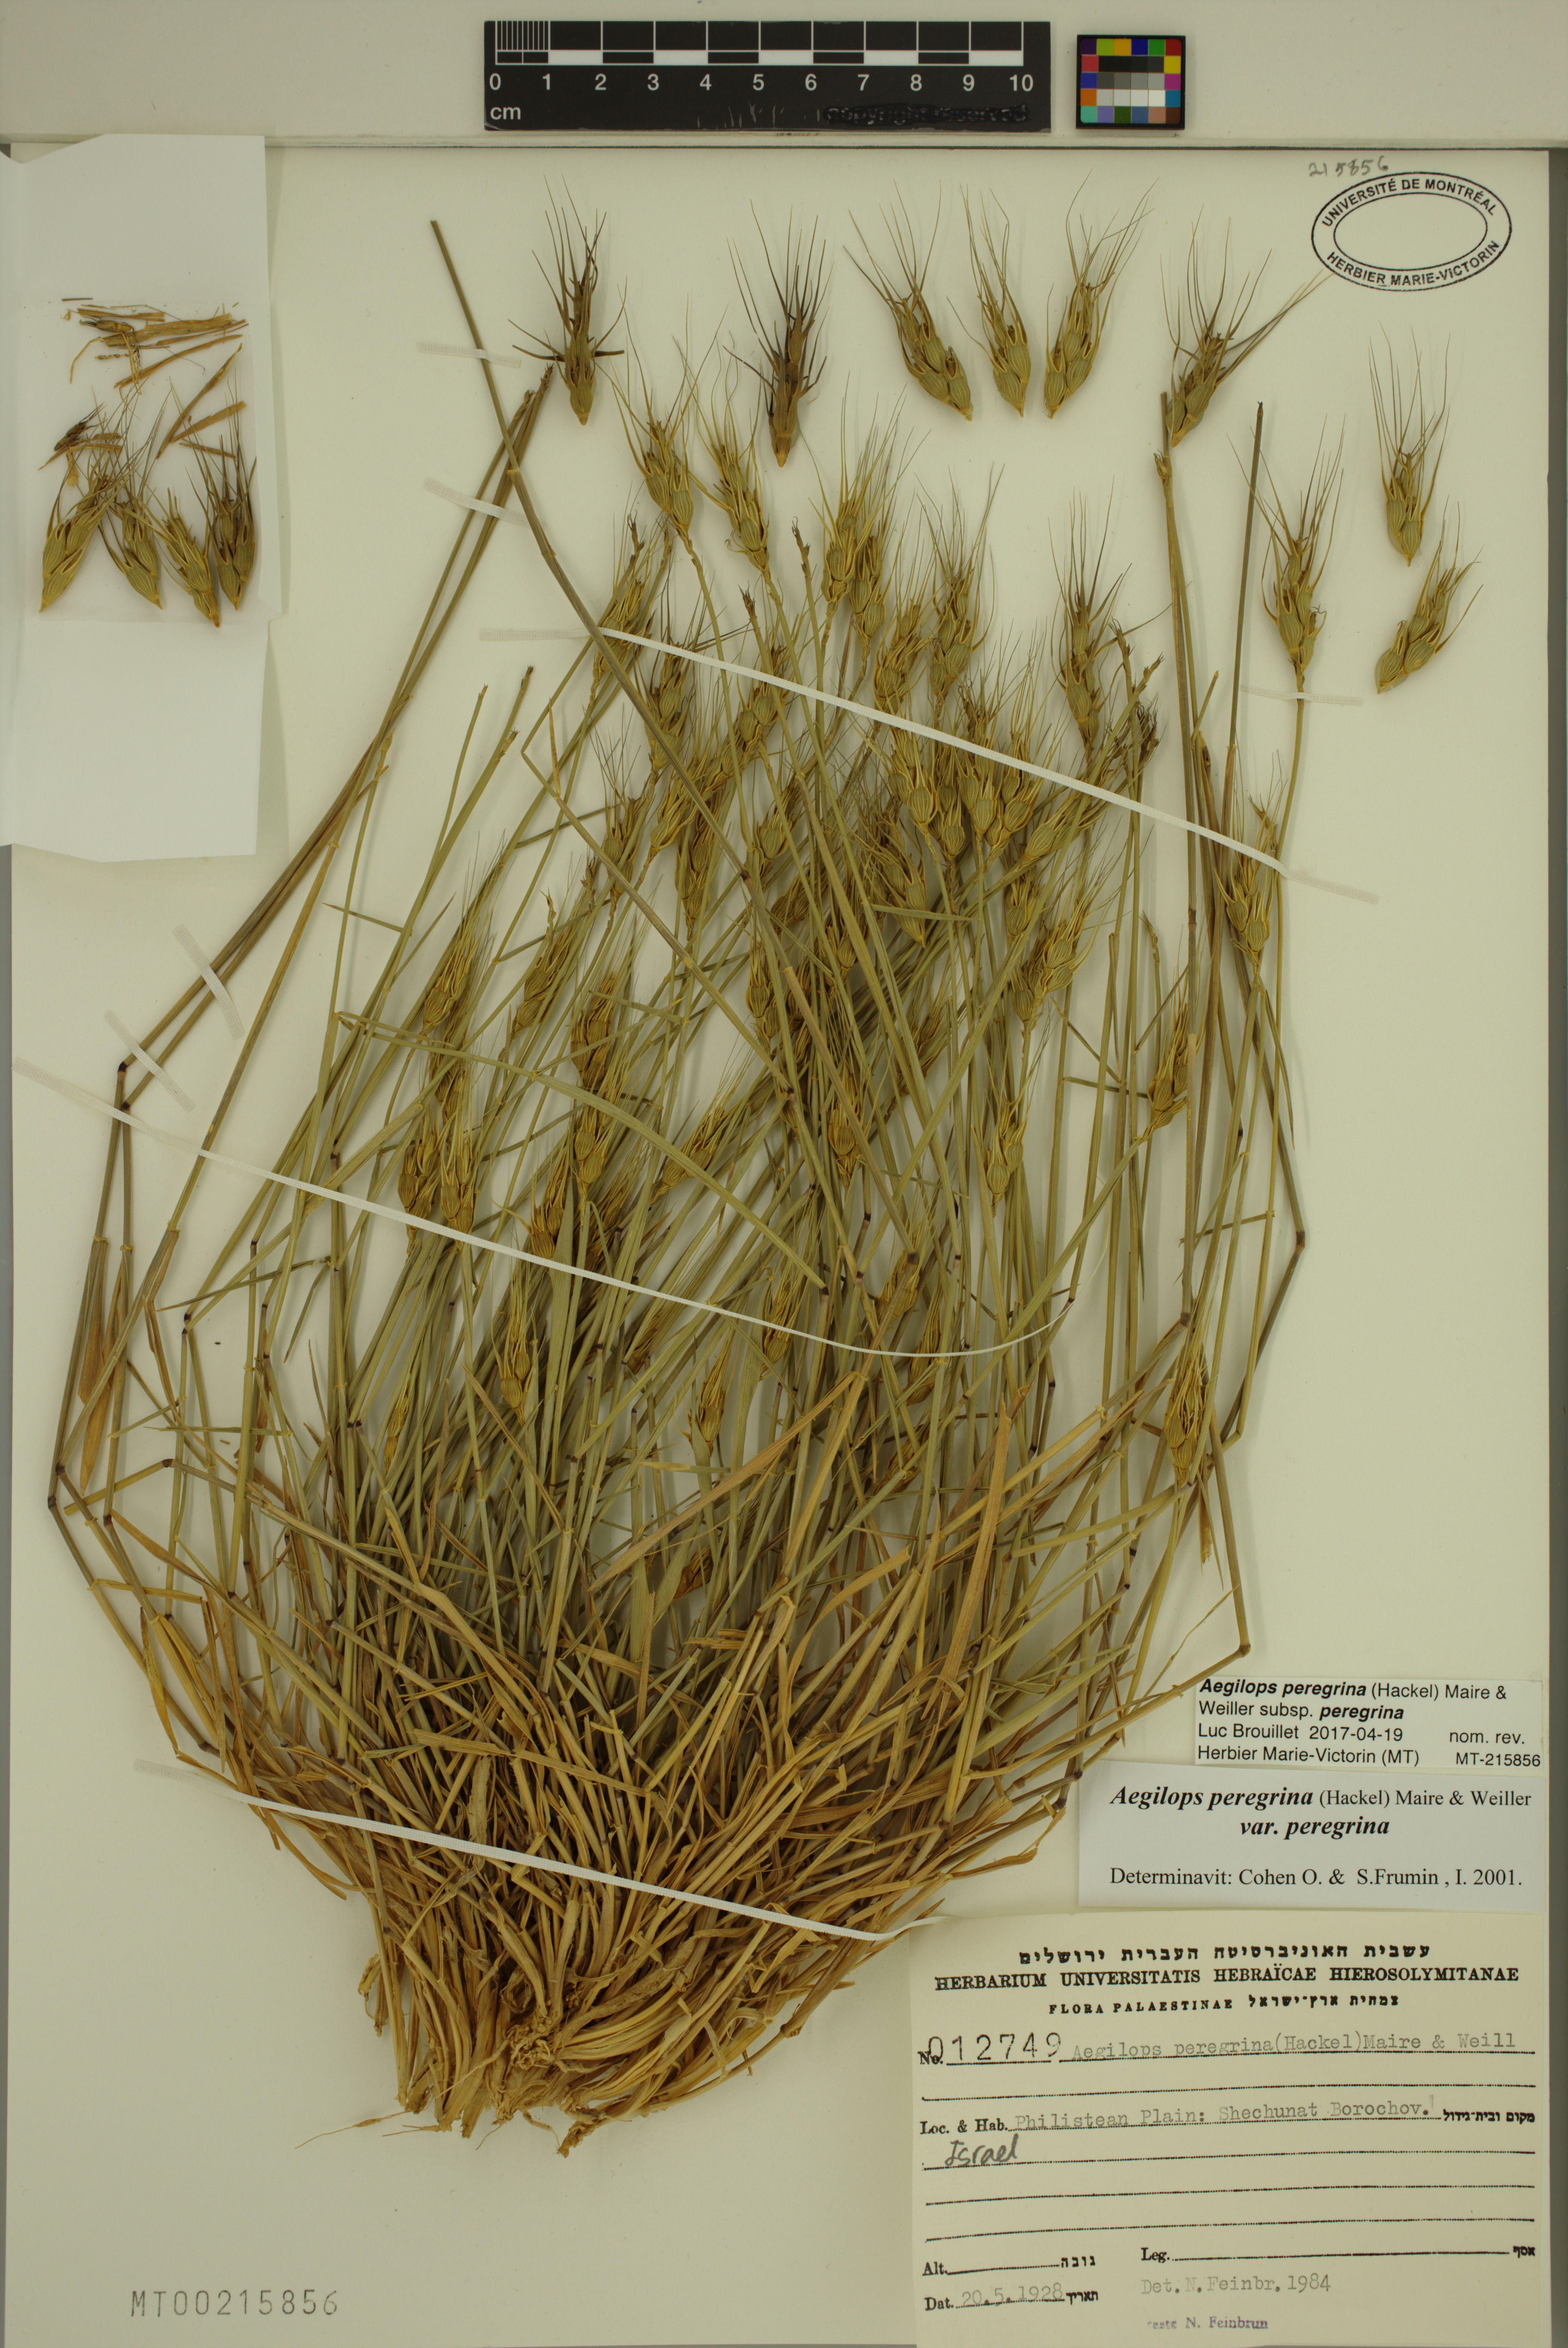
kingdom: Plantae
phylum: Tracheophyta
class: Liliopsida
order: Poales
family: Poaceae
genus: Aegilops
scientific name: Aegilops peregrina
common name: Goatgrass
